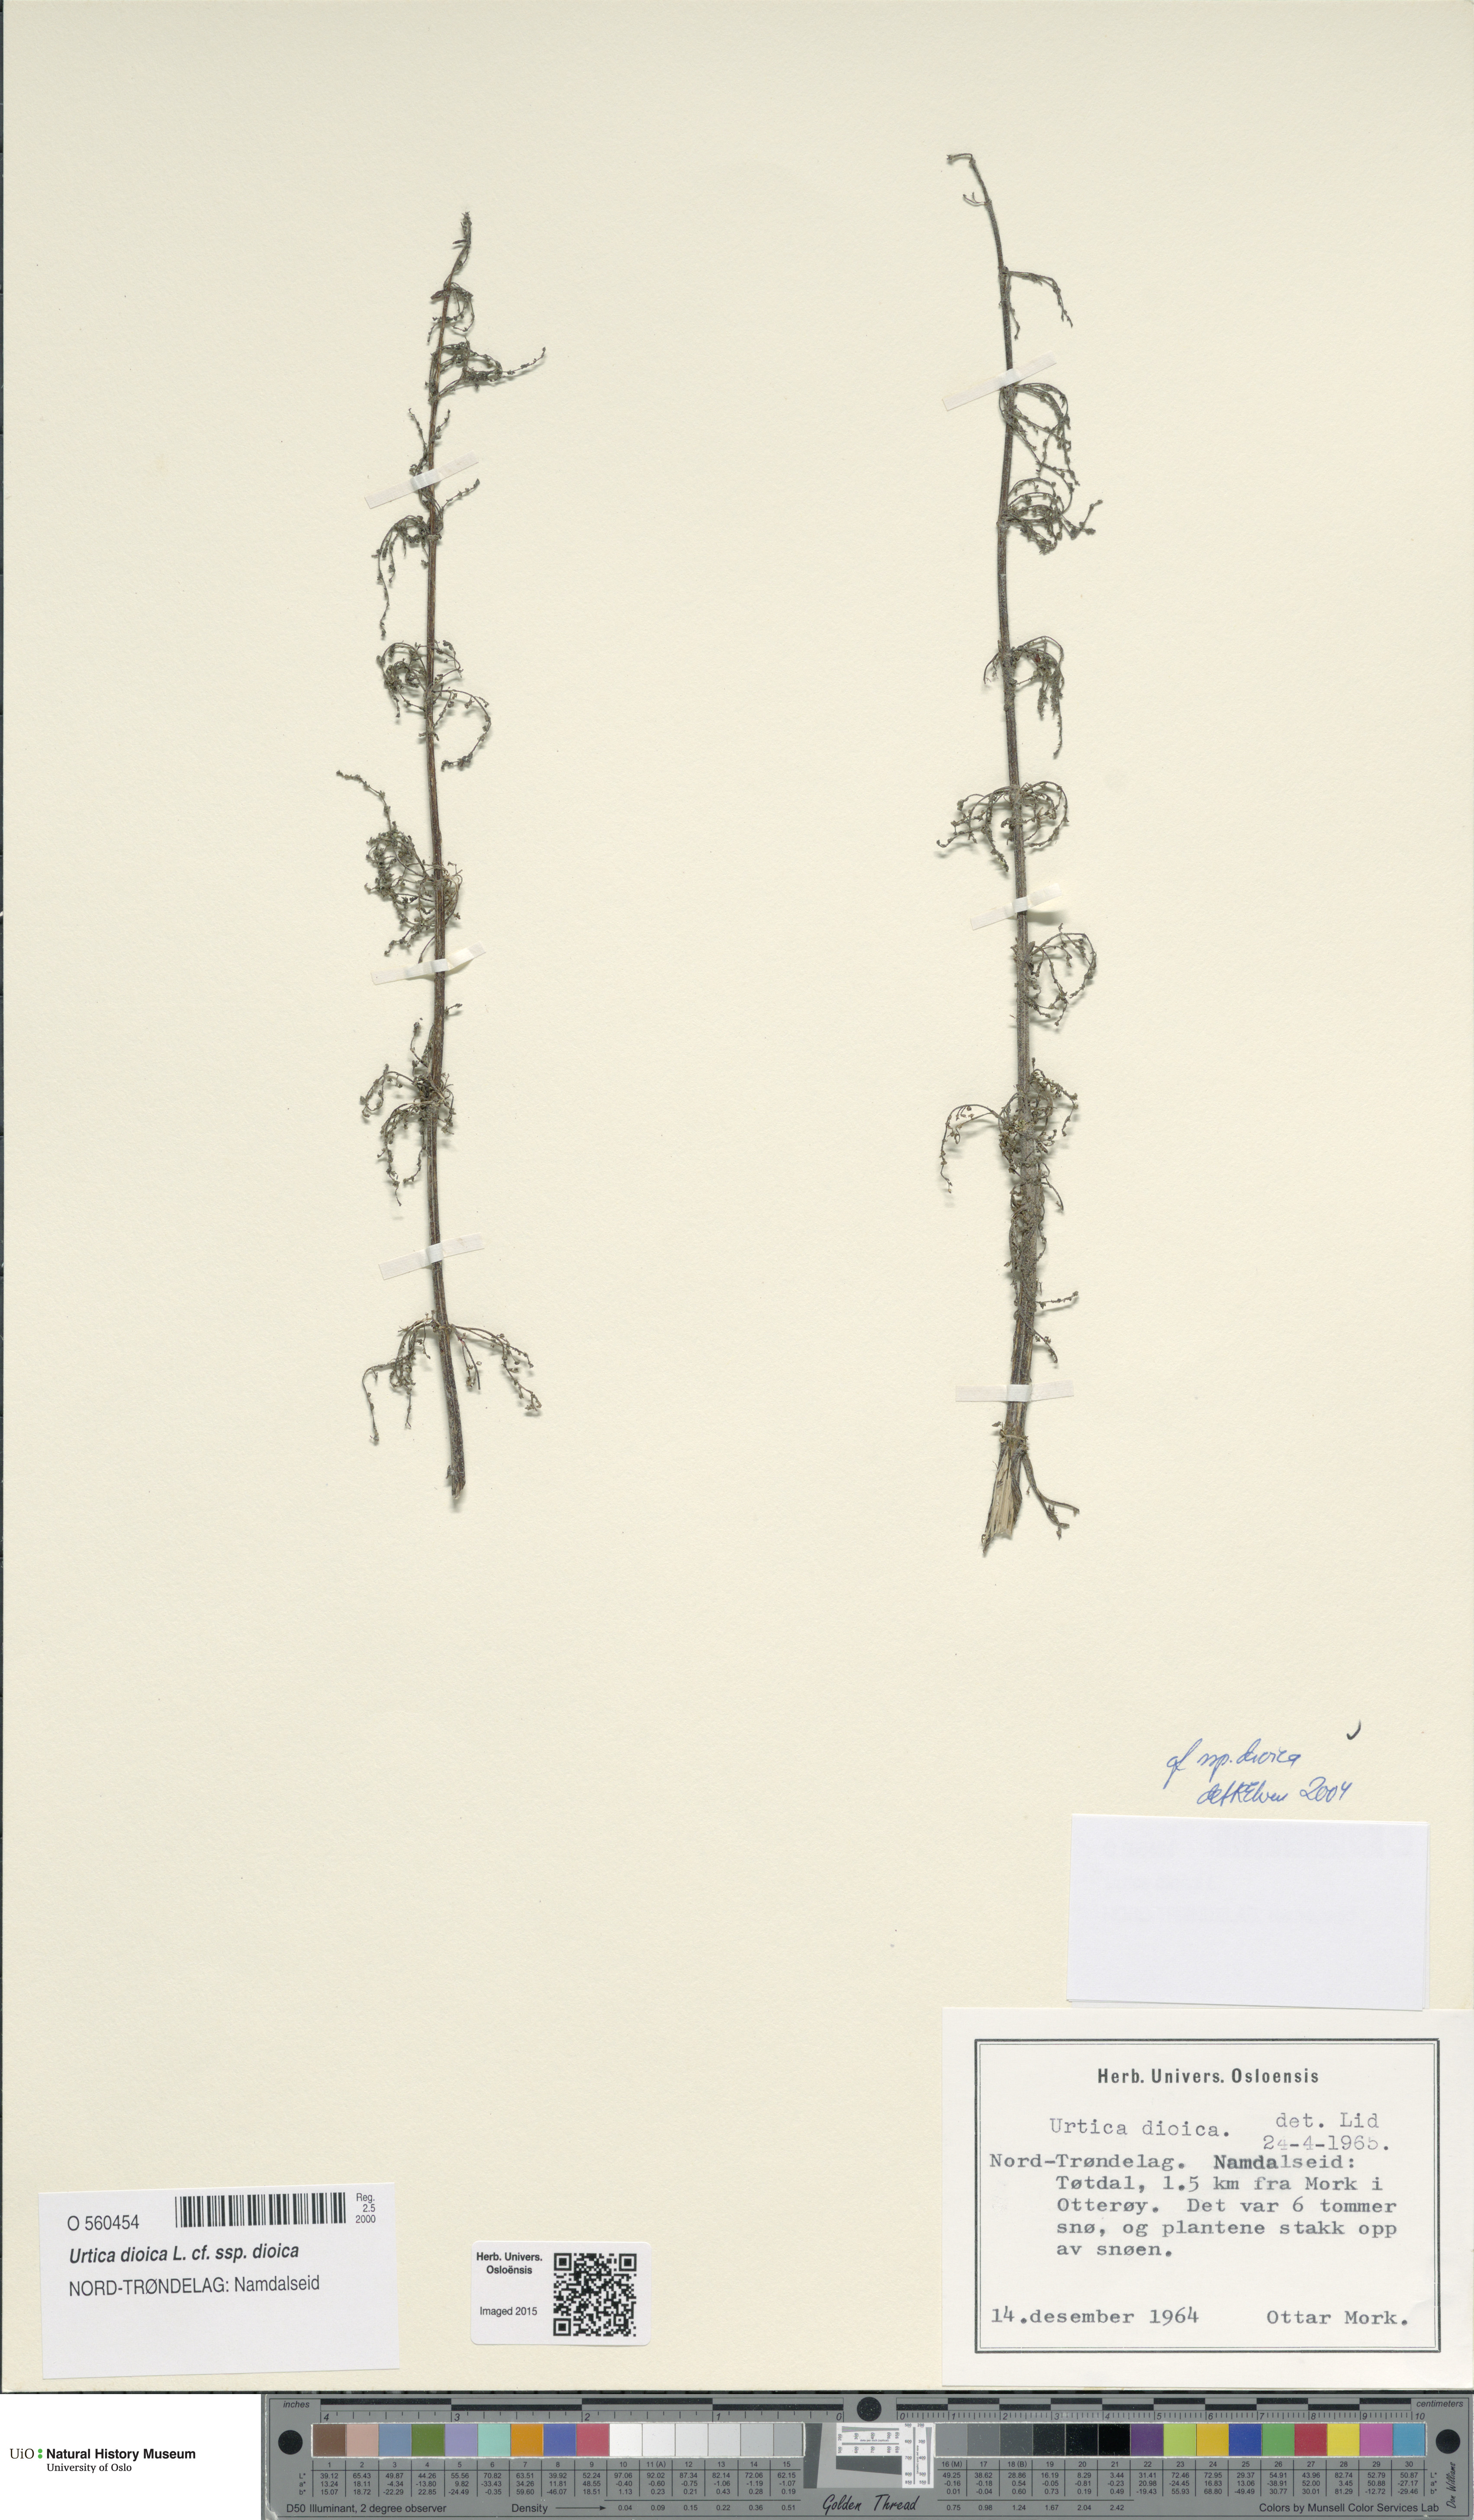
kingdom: Plantae
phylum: Tracheophyta
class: Magnoliopsida
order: Rosales
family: Urticaceae
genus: Urtica
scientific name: Urtica dioica
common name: Common nettle
